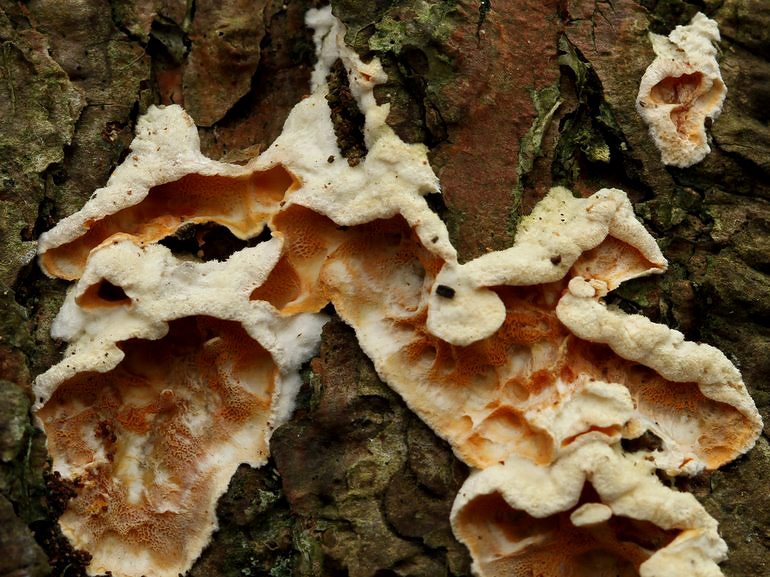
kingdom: Fungi
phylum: Basidiomycota
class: Agaricomycetes
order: Polyporales
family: Incrustoporiaceae
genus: Skeletocutis
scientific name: Skeletocutis amorpha
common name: orange krystalporesvamp
